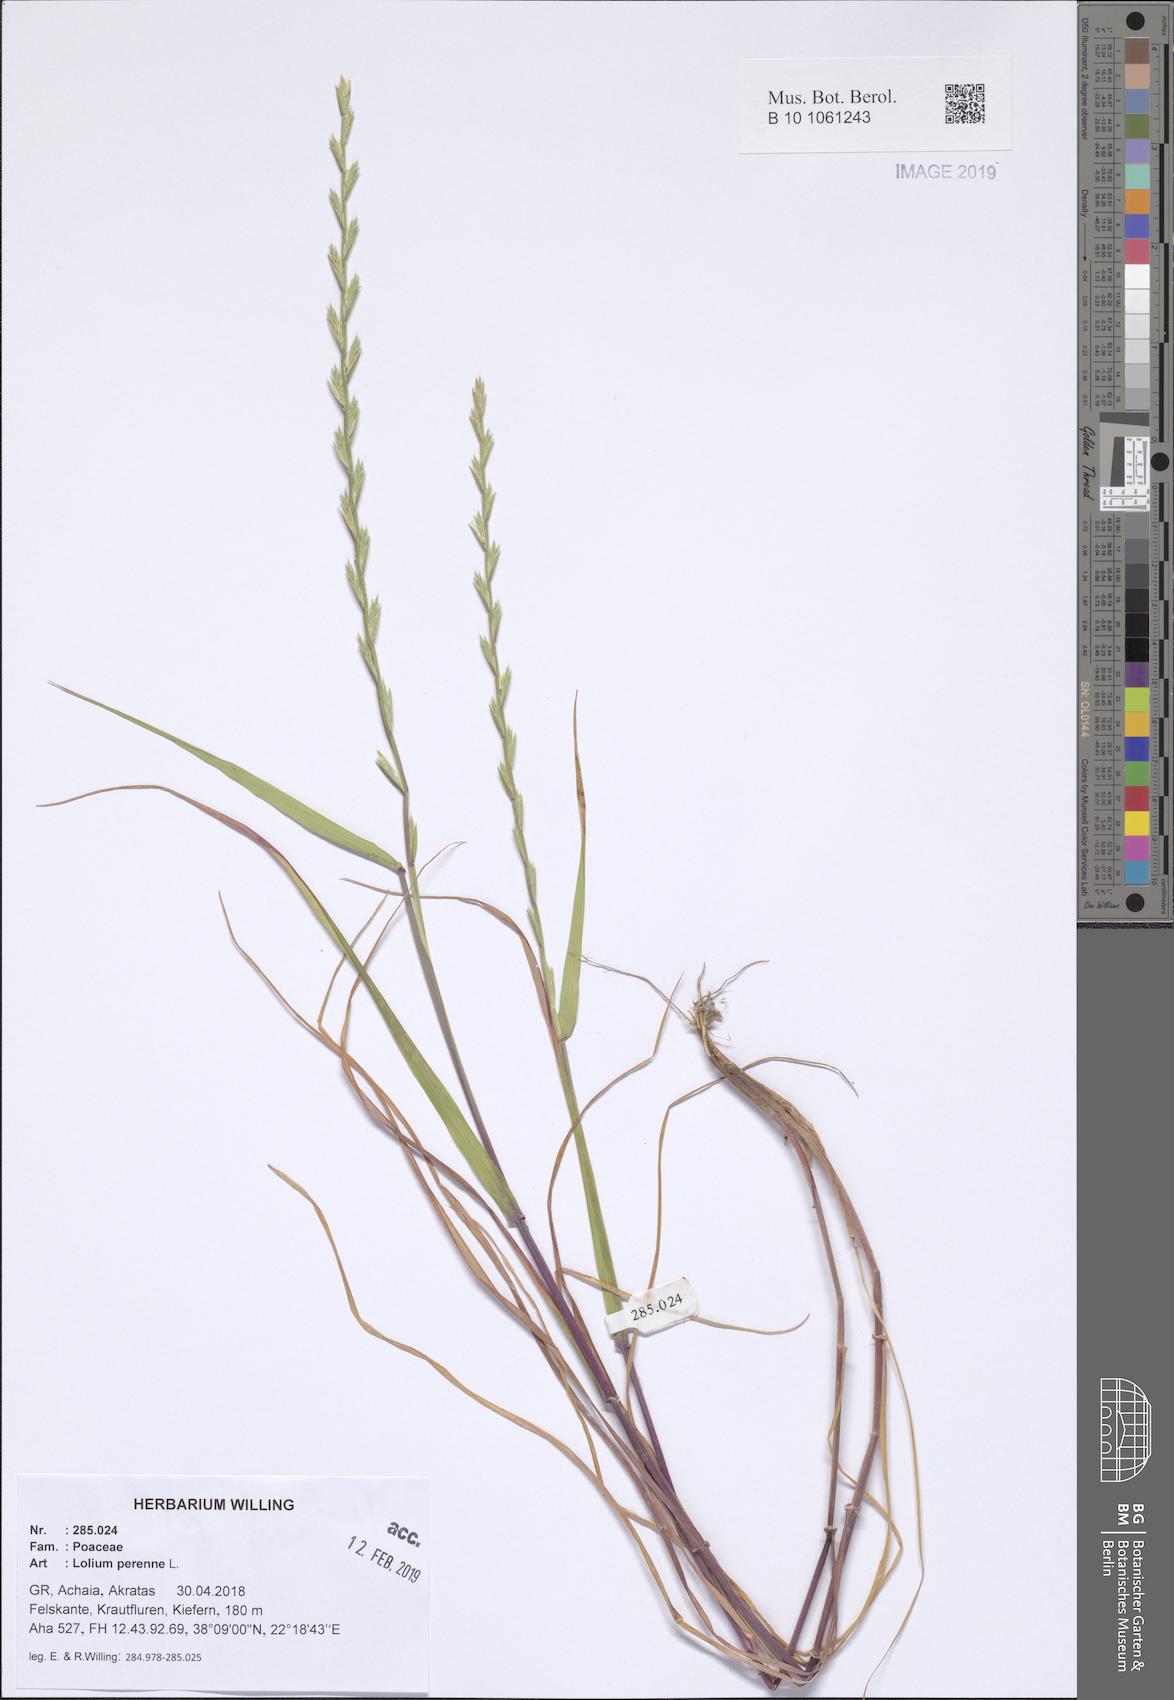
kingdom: Plantae
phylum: Tracheophyta
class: Liliopsida
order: Poales
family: Poaceae
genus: Lolium
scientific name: Lolium perenne
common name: Perennial ryegrass
